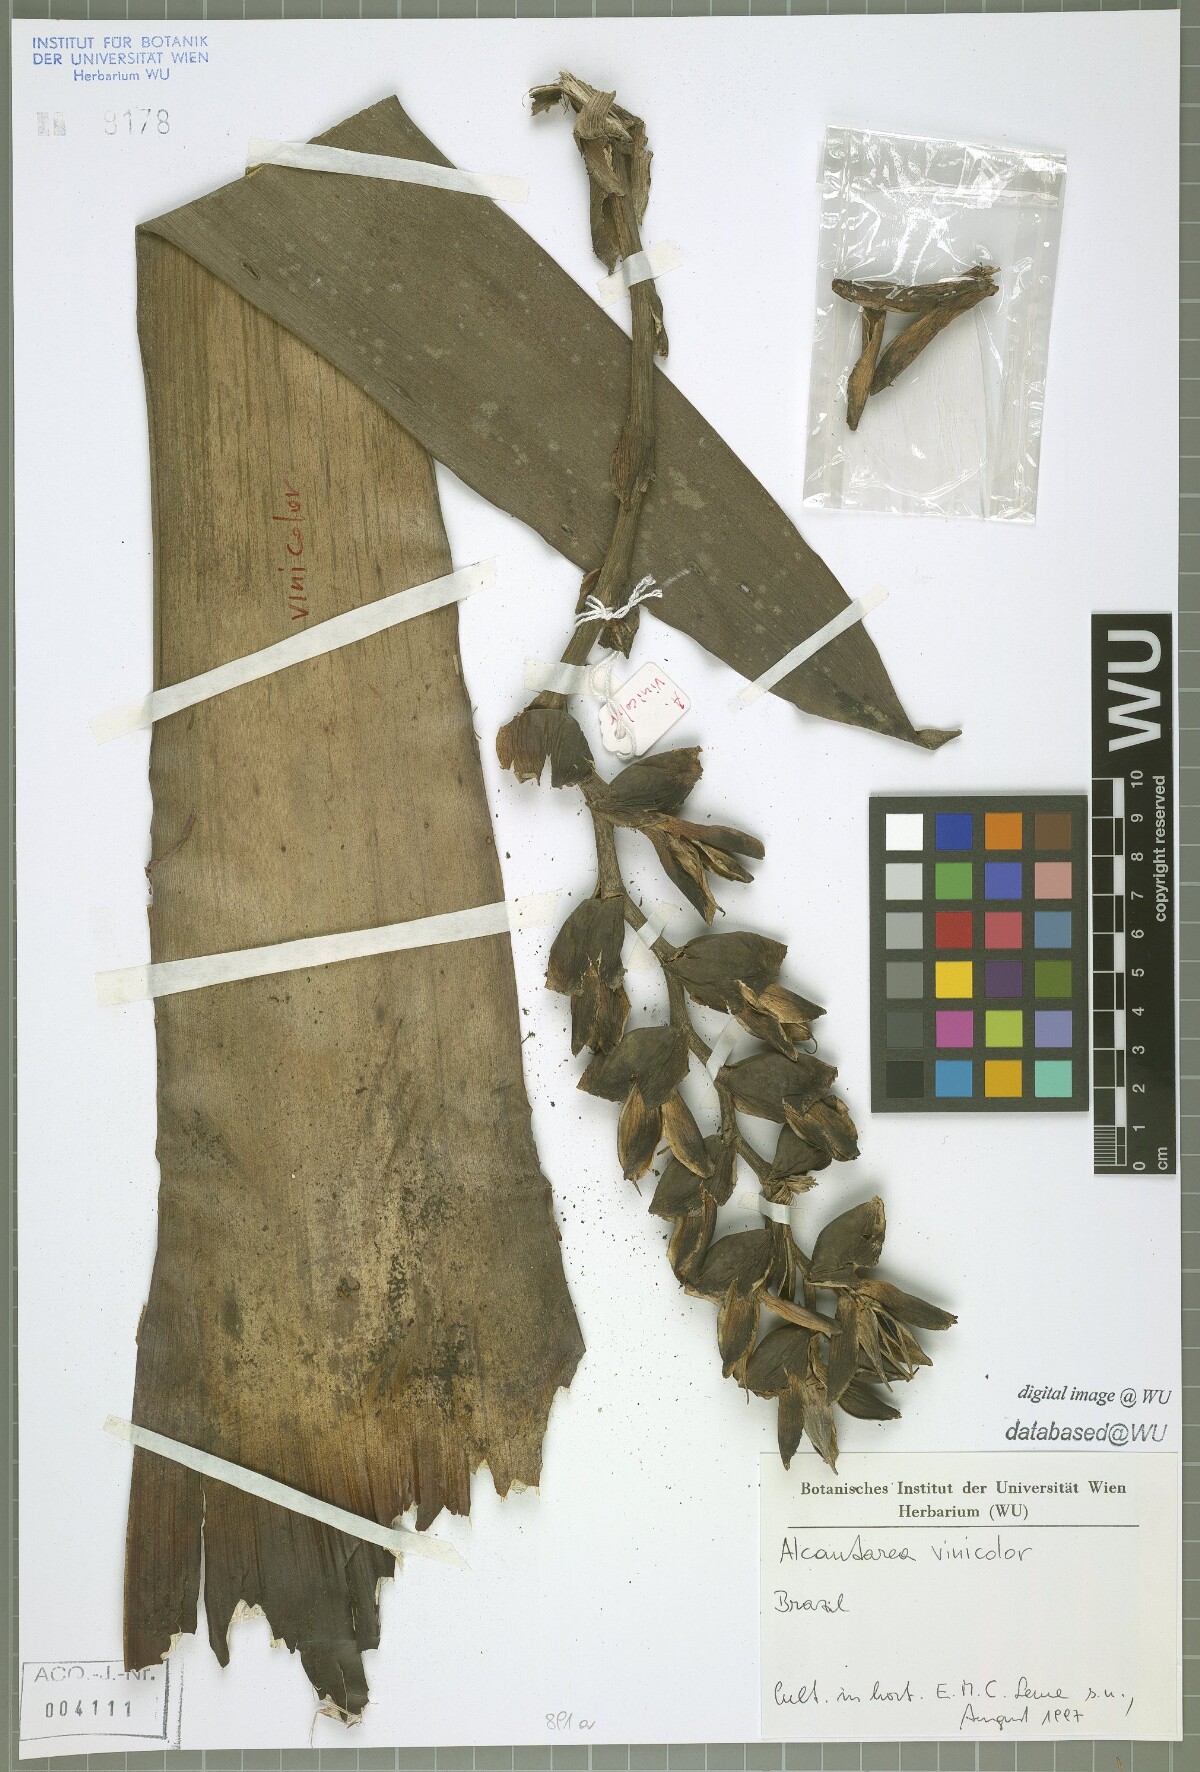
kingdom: Plantae
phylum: Tracheophyta
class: Liliopsida
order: Poales
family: Bromeliaceae
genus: Alcantarea
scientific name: Alcantarea vinicolor
